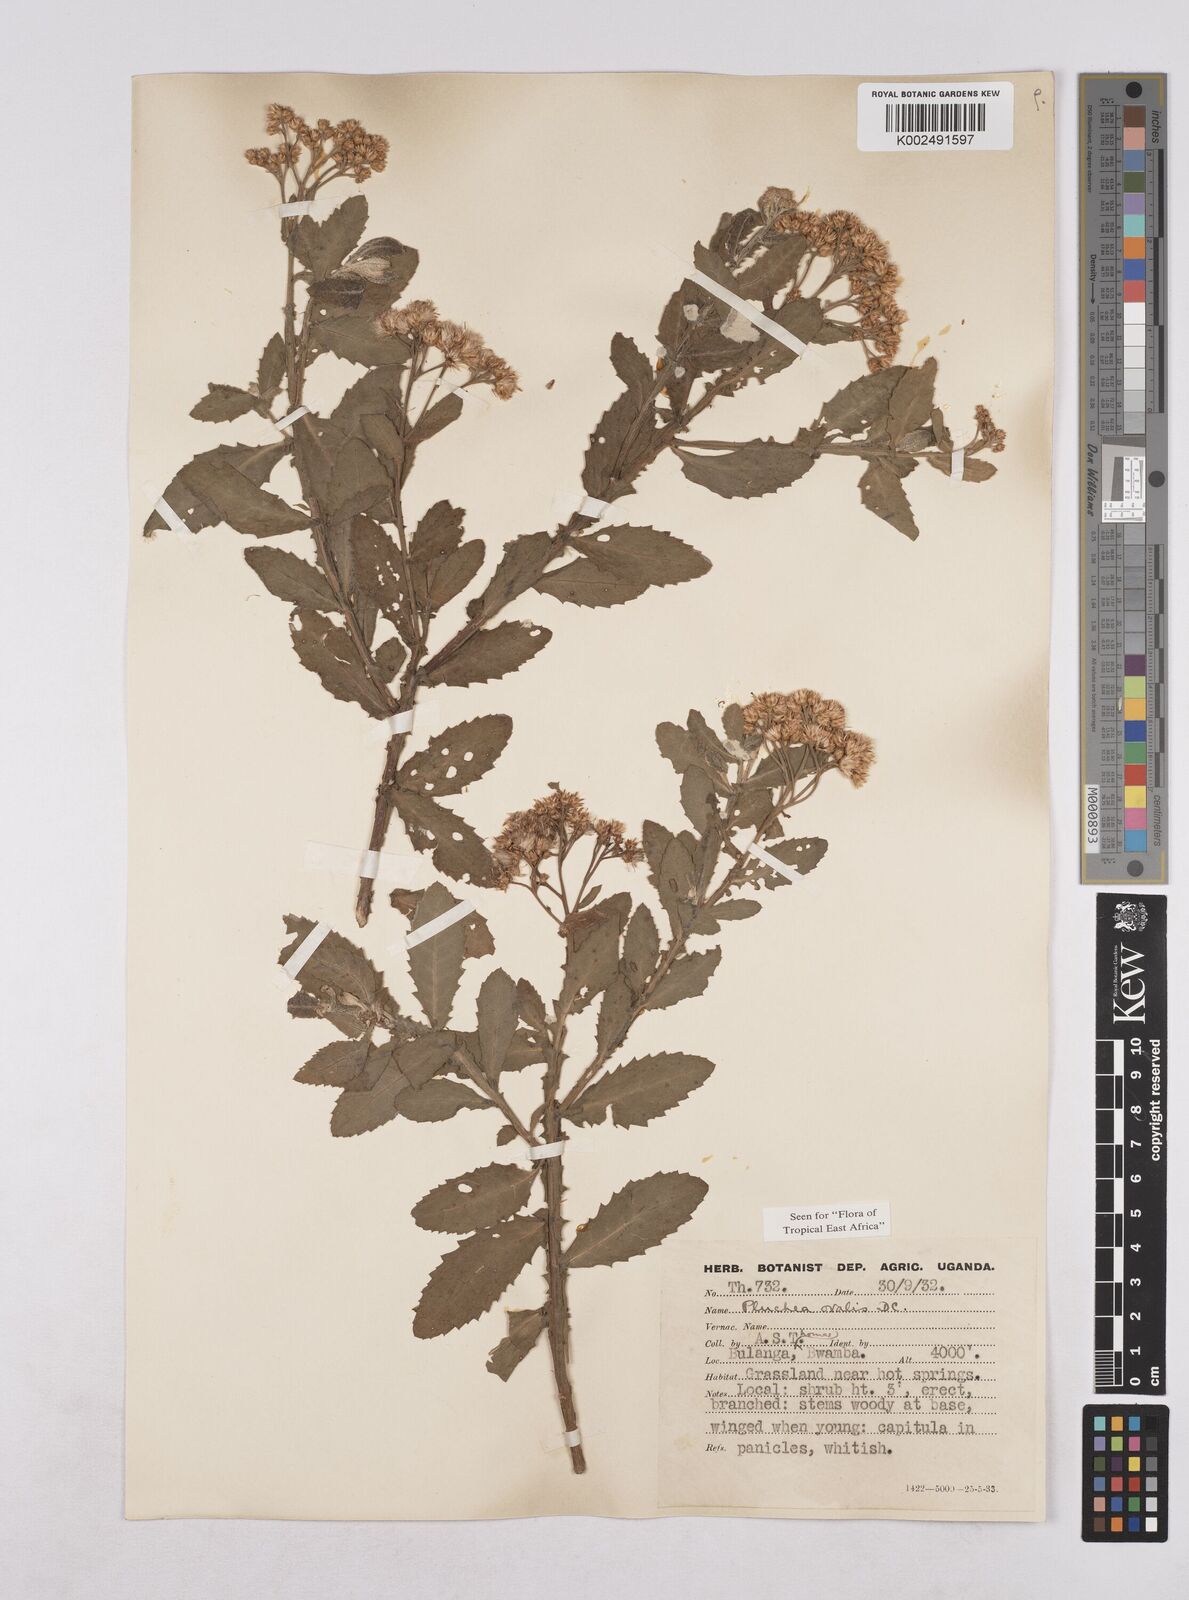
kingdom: Plantae
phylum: Tracheophyta
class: Magnoliopsida
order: Asterales
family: Asteraceae
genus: Pluchea
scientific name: Pluchea ovalis
